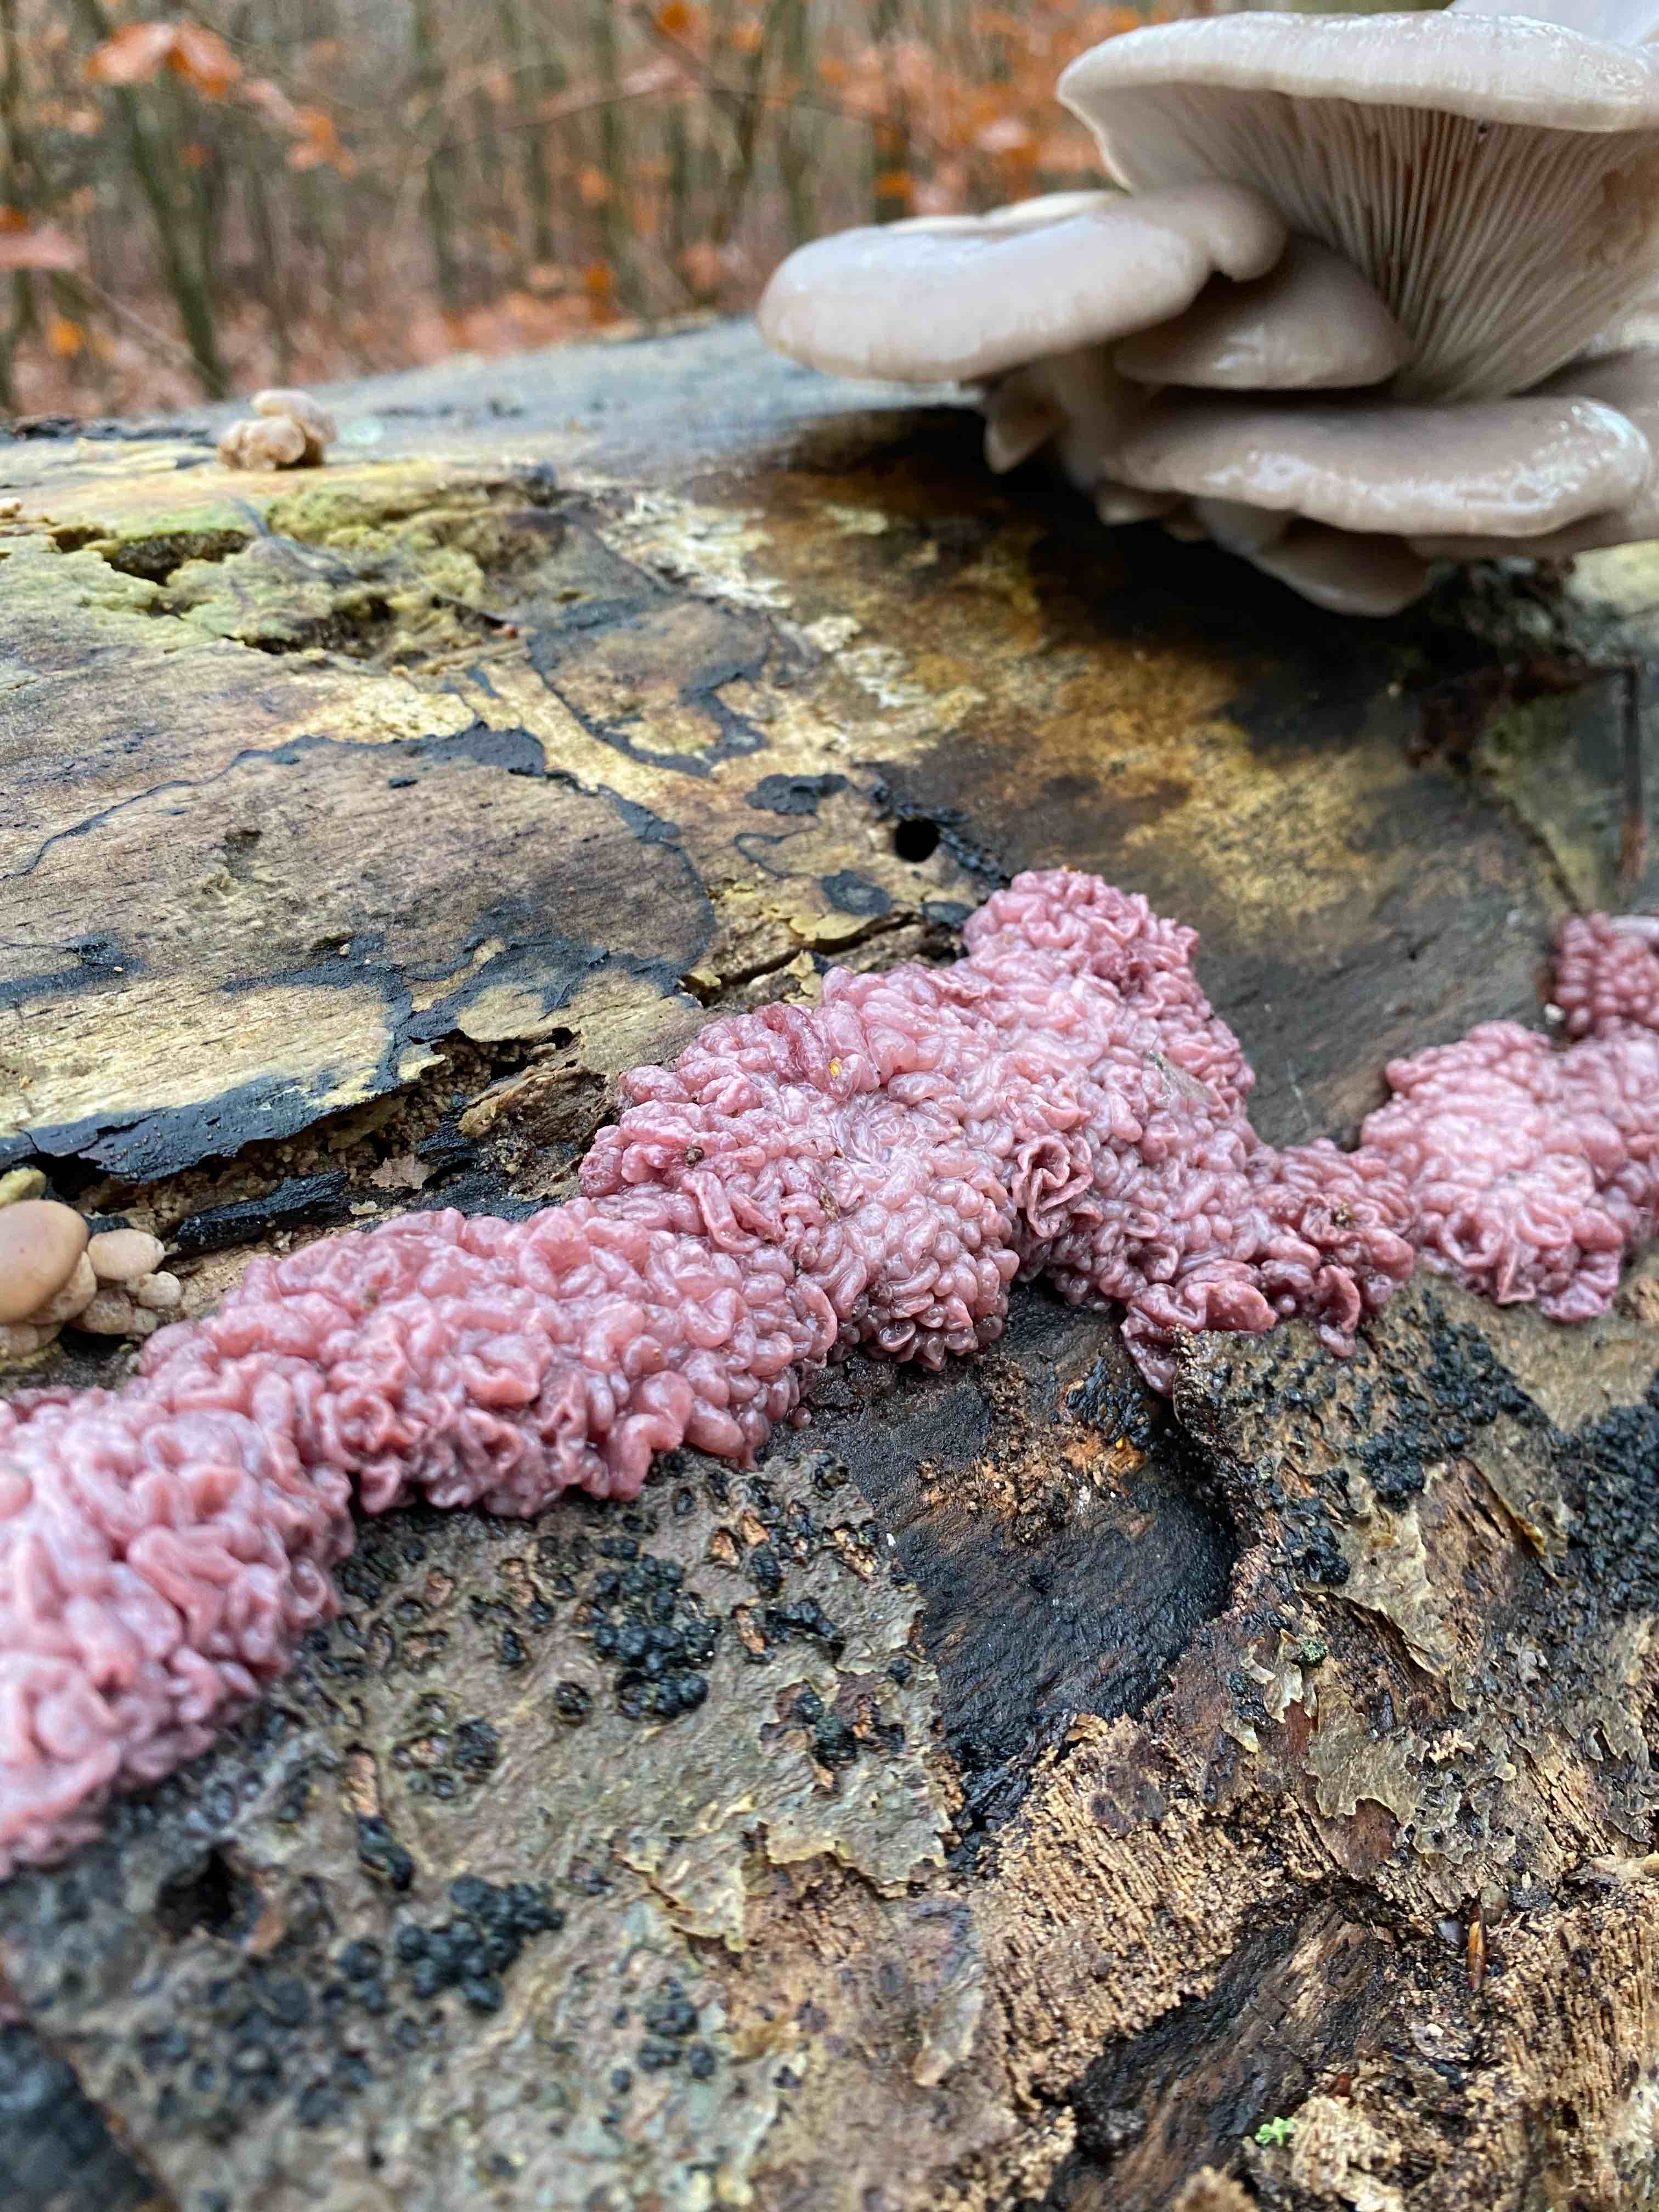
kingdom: Fungi
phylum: Ascomycota
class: Leotiomycetes
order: Helotiales
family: Gelatinodiscaceae
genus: Ascocoryne
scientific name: Ascocoryne sarcoides
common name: rødlilla sejskive
